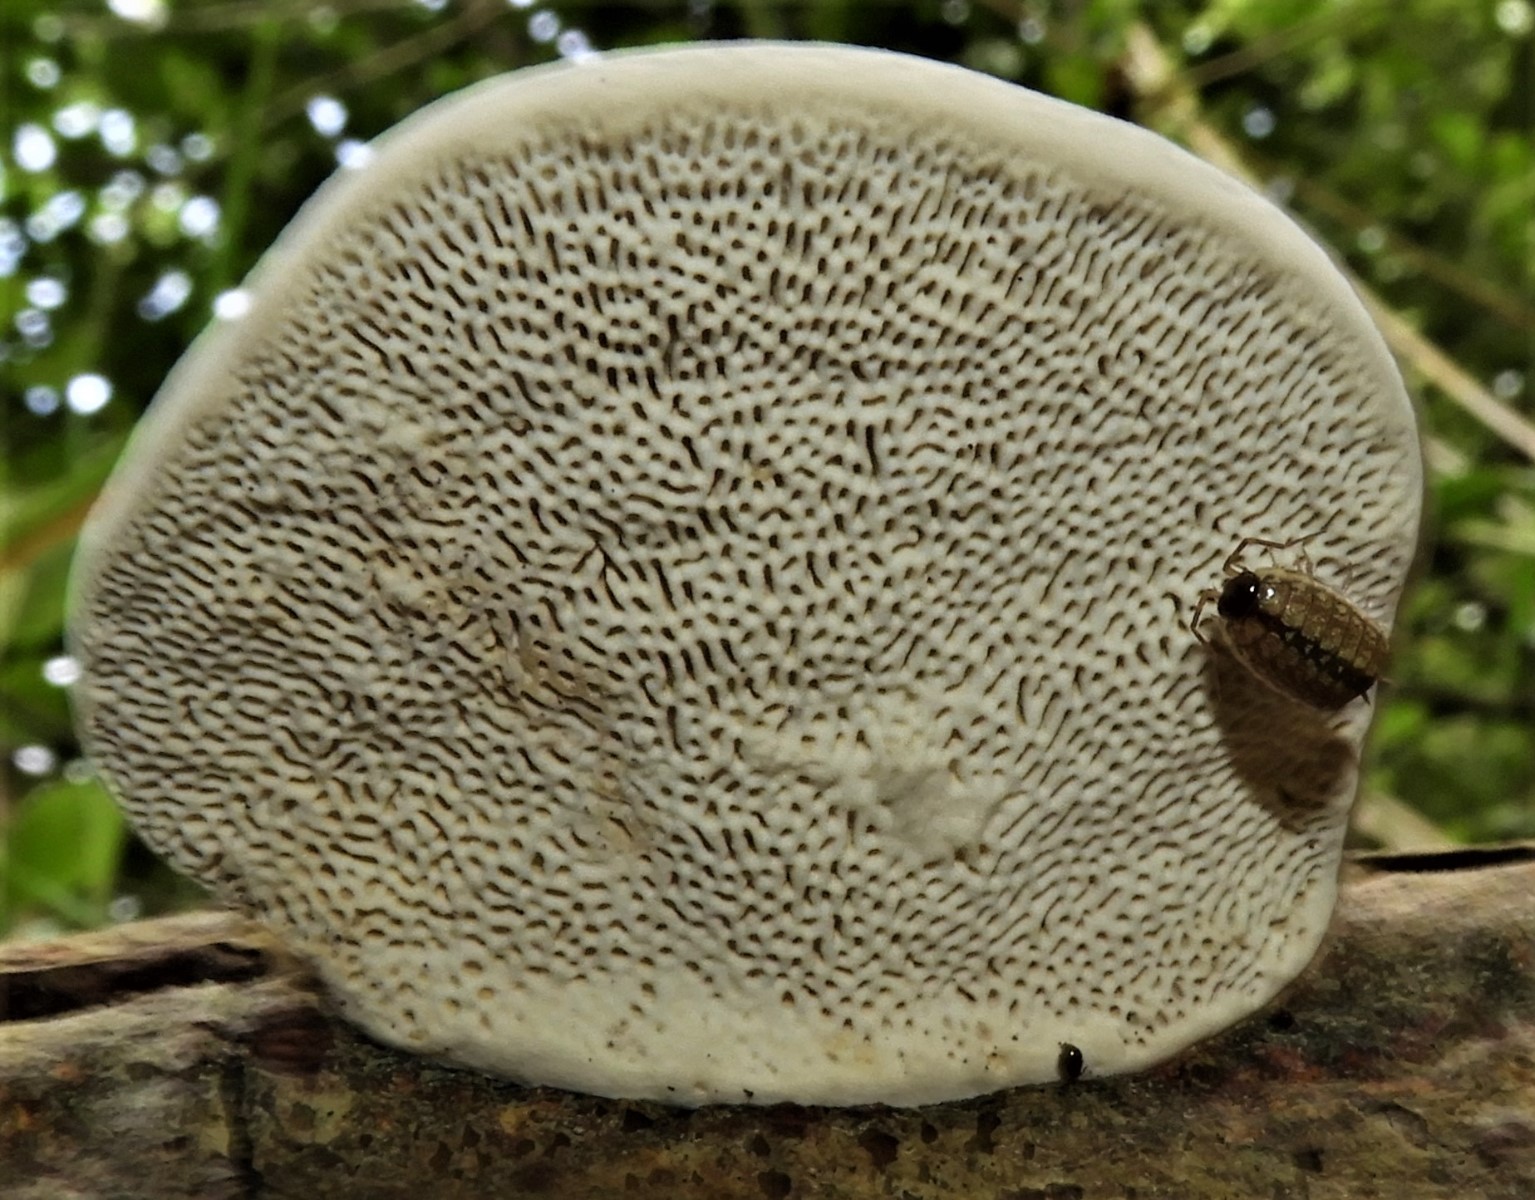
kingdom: Fungi
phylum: Basidiomycota
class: Agaricomycetes
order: Polyporales
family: Polyporaceae
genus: Daedaleopsis
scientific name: Daedaleopsis confragosa
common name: rødmende læderporesvamp
